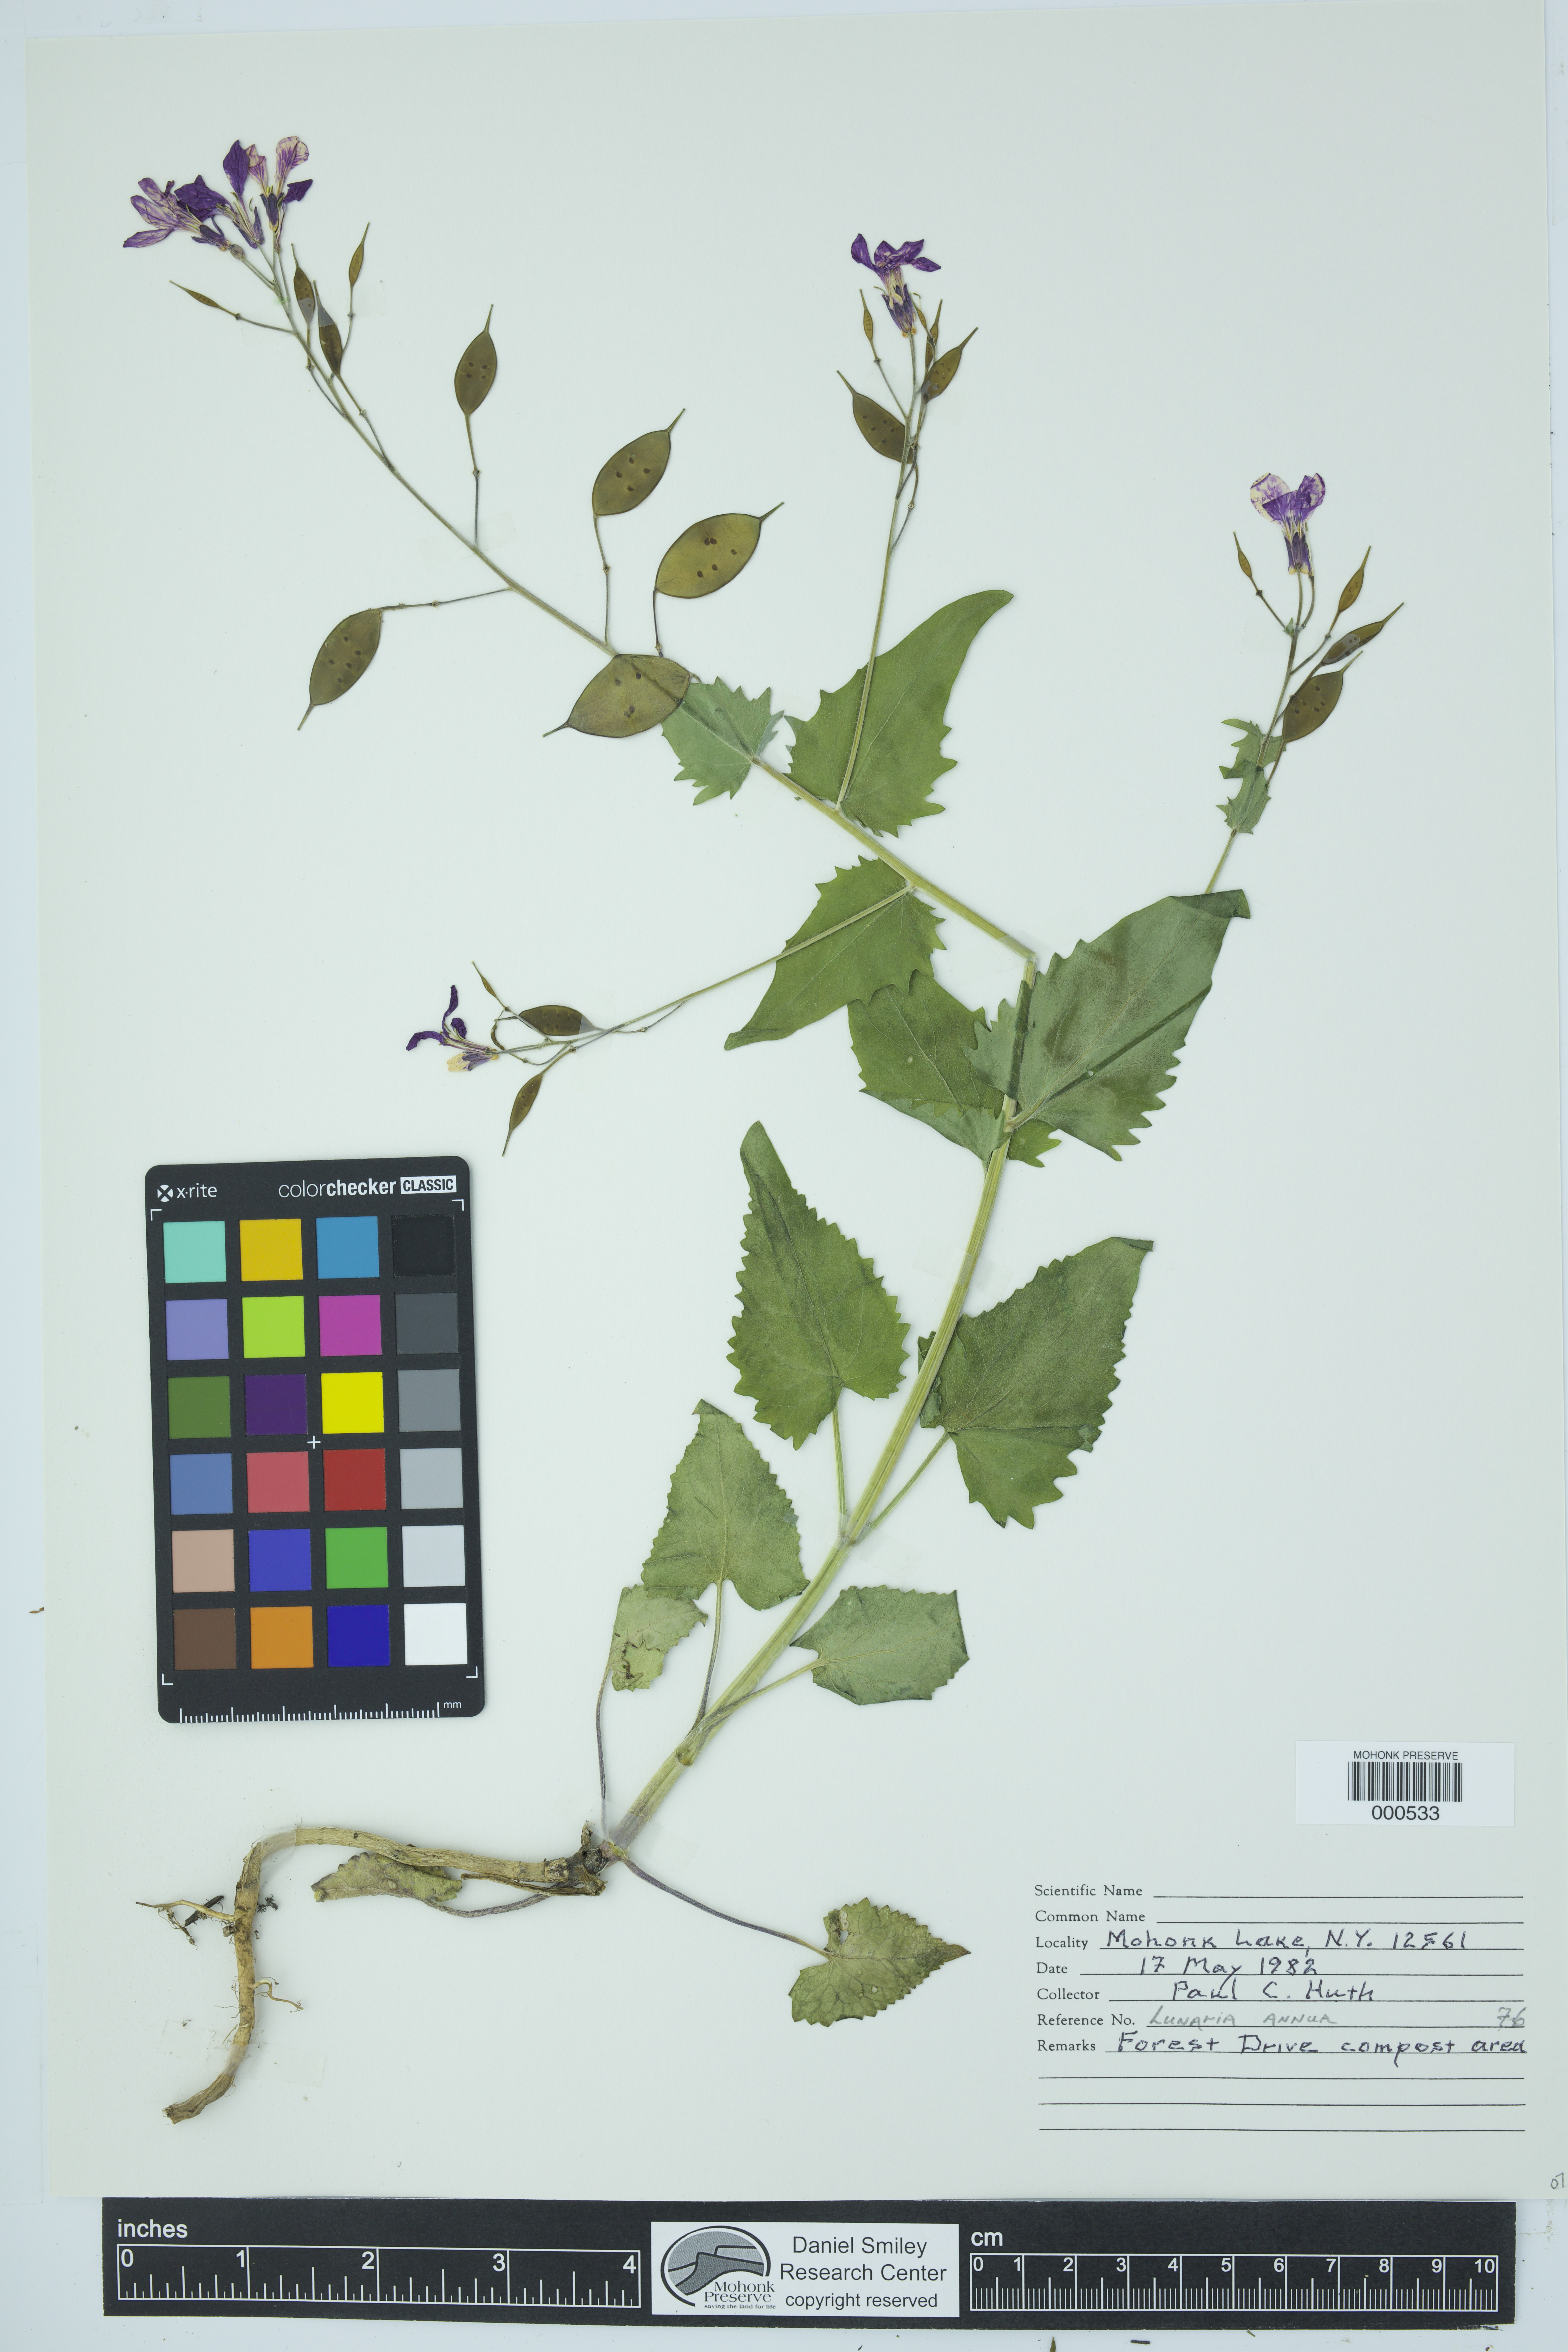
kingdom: Plantae
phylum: Tracheophyta
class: Magnoliopsida
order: Brassicales
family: Brassicaceae
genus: Lunaria
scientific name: Lunaria annua
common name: Honesty
